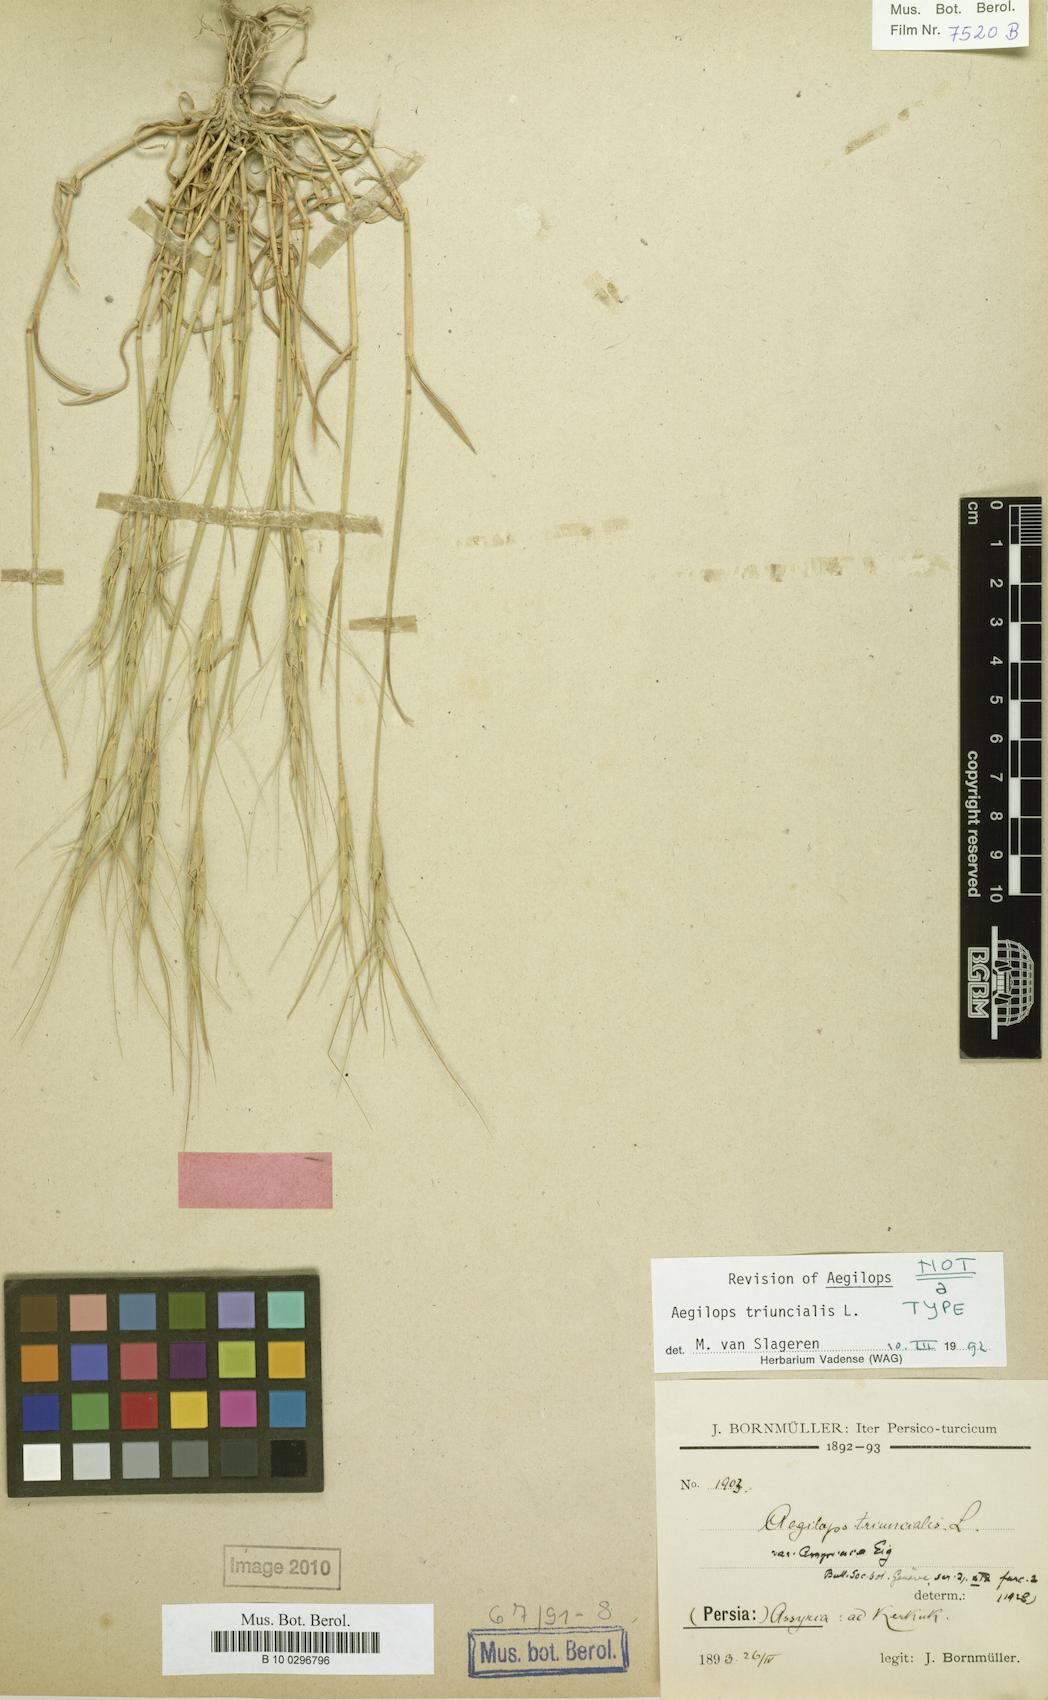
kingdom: Plantae
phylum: Tracheophyta
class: Liliopsida
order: Poales
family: Poaceae
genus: Aegilops
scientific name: Aegilops triuncialis
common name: Barb goat grass
